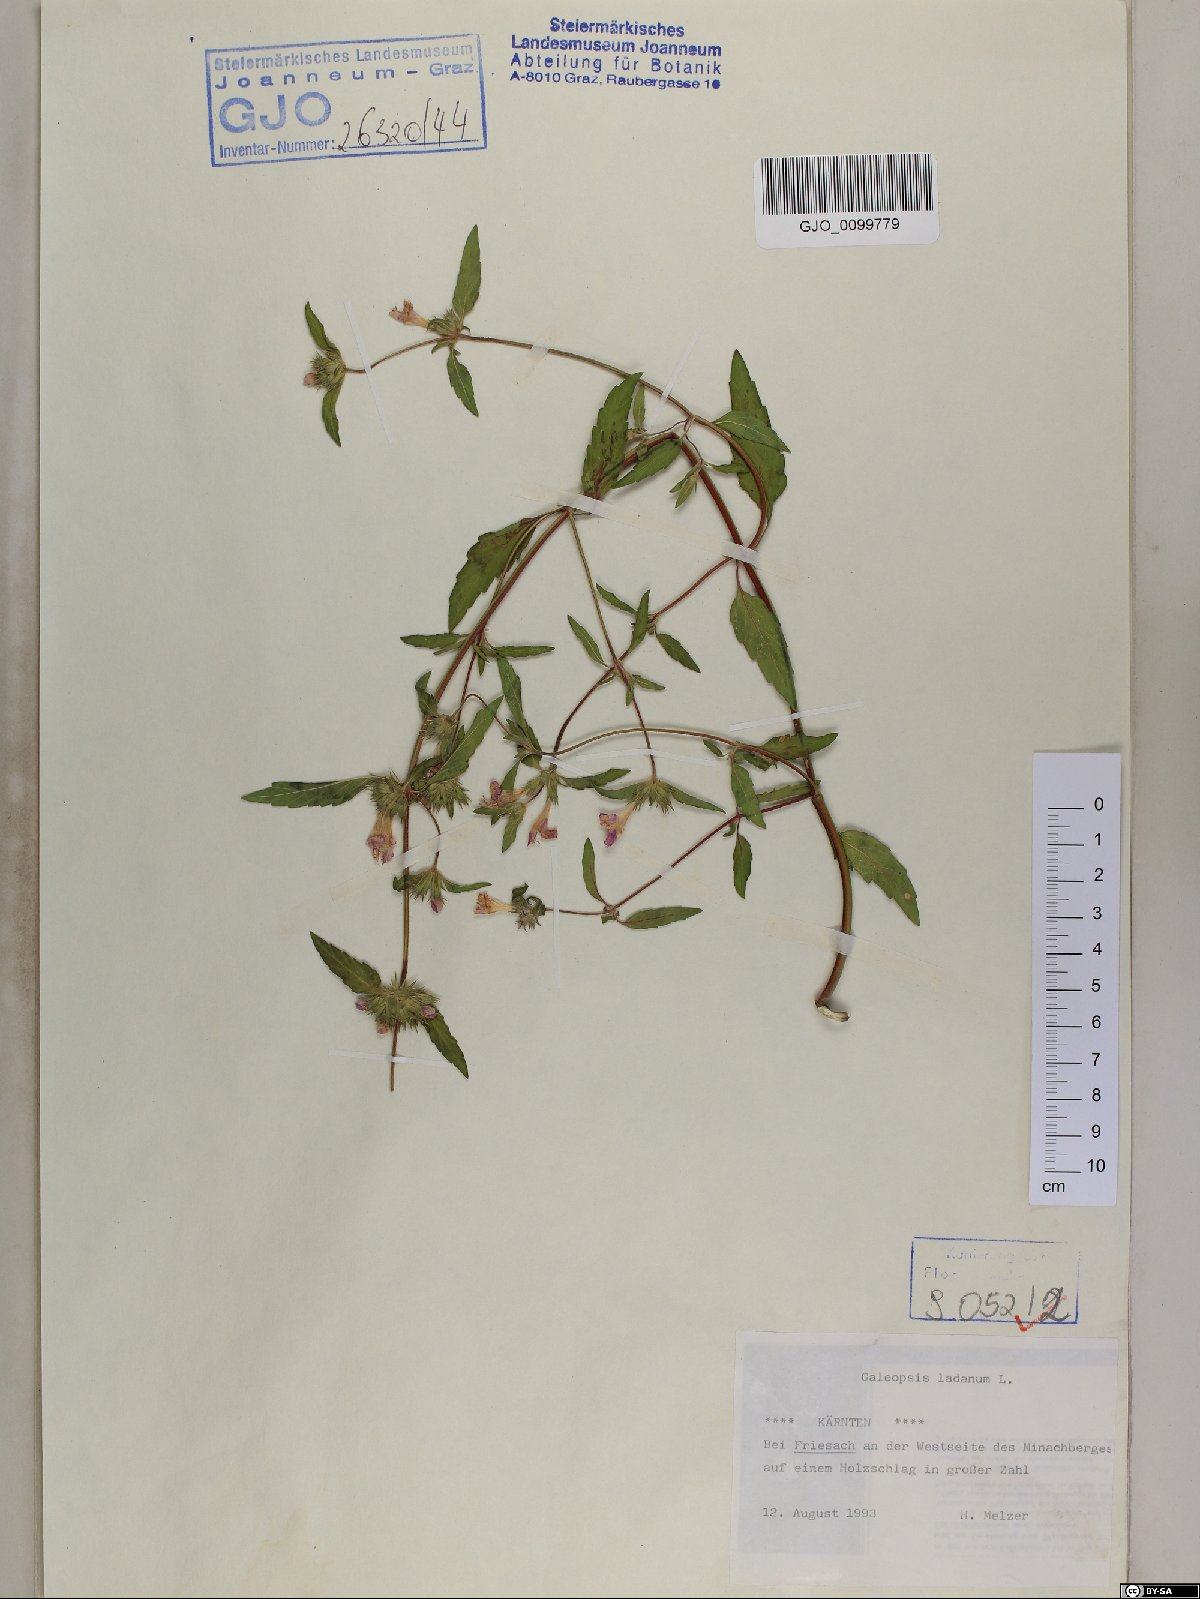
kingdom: Plantae
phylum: Tracheophyta
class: Magnoliopsida
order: Lamiales
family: Lamiaceae
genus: Galeopsis
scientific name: Galeopsis ladanum
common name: Broad-leaved hemp-nettle
